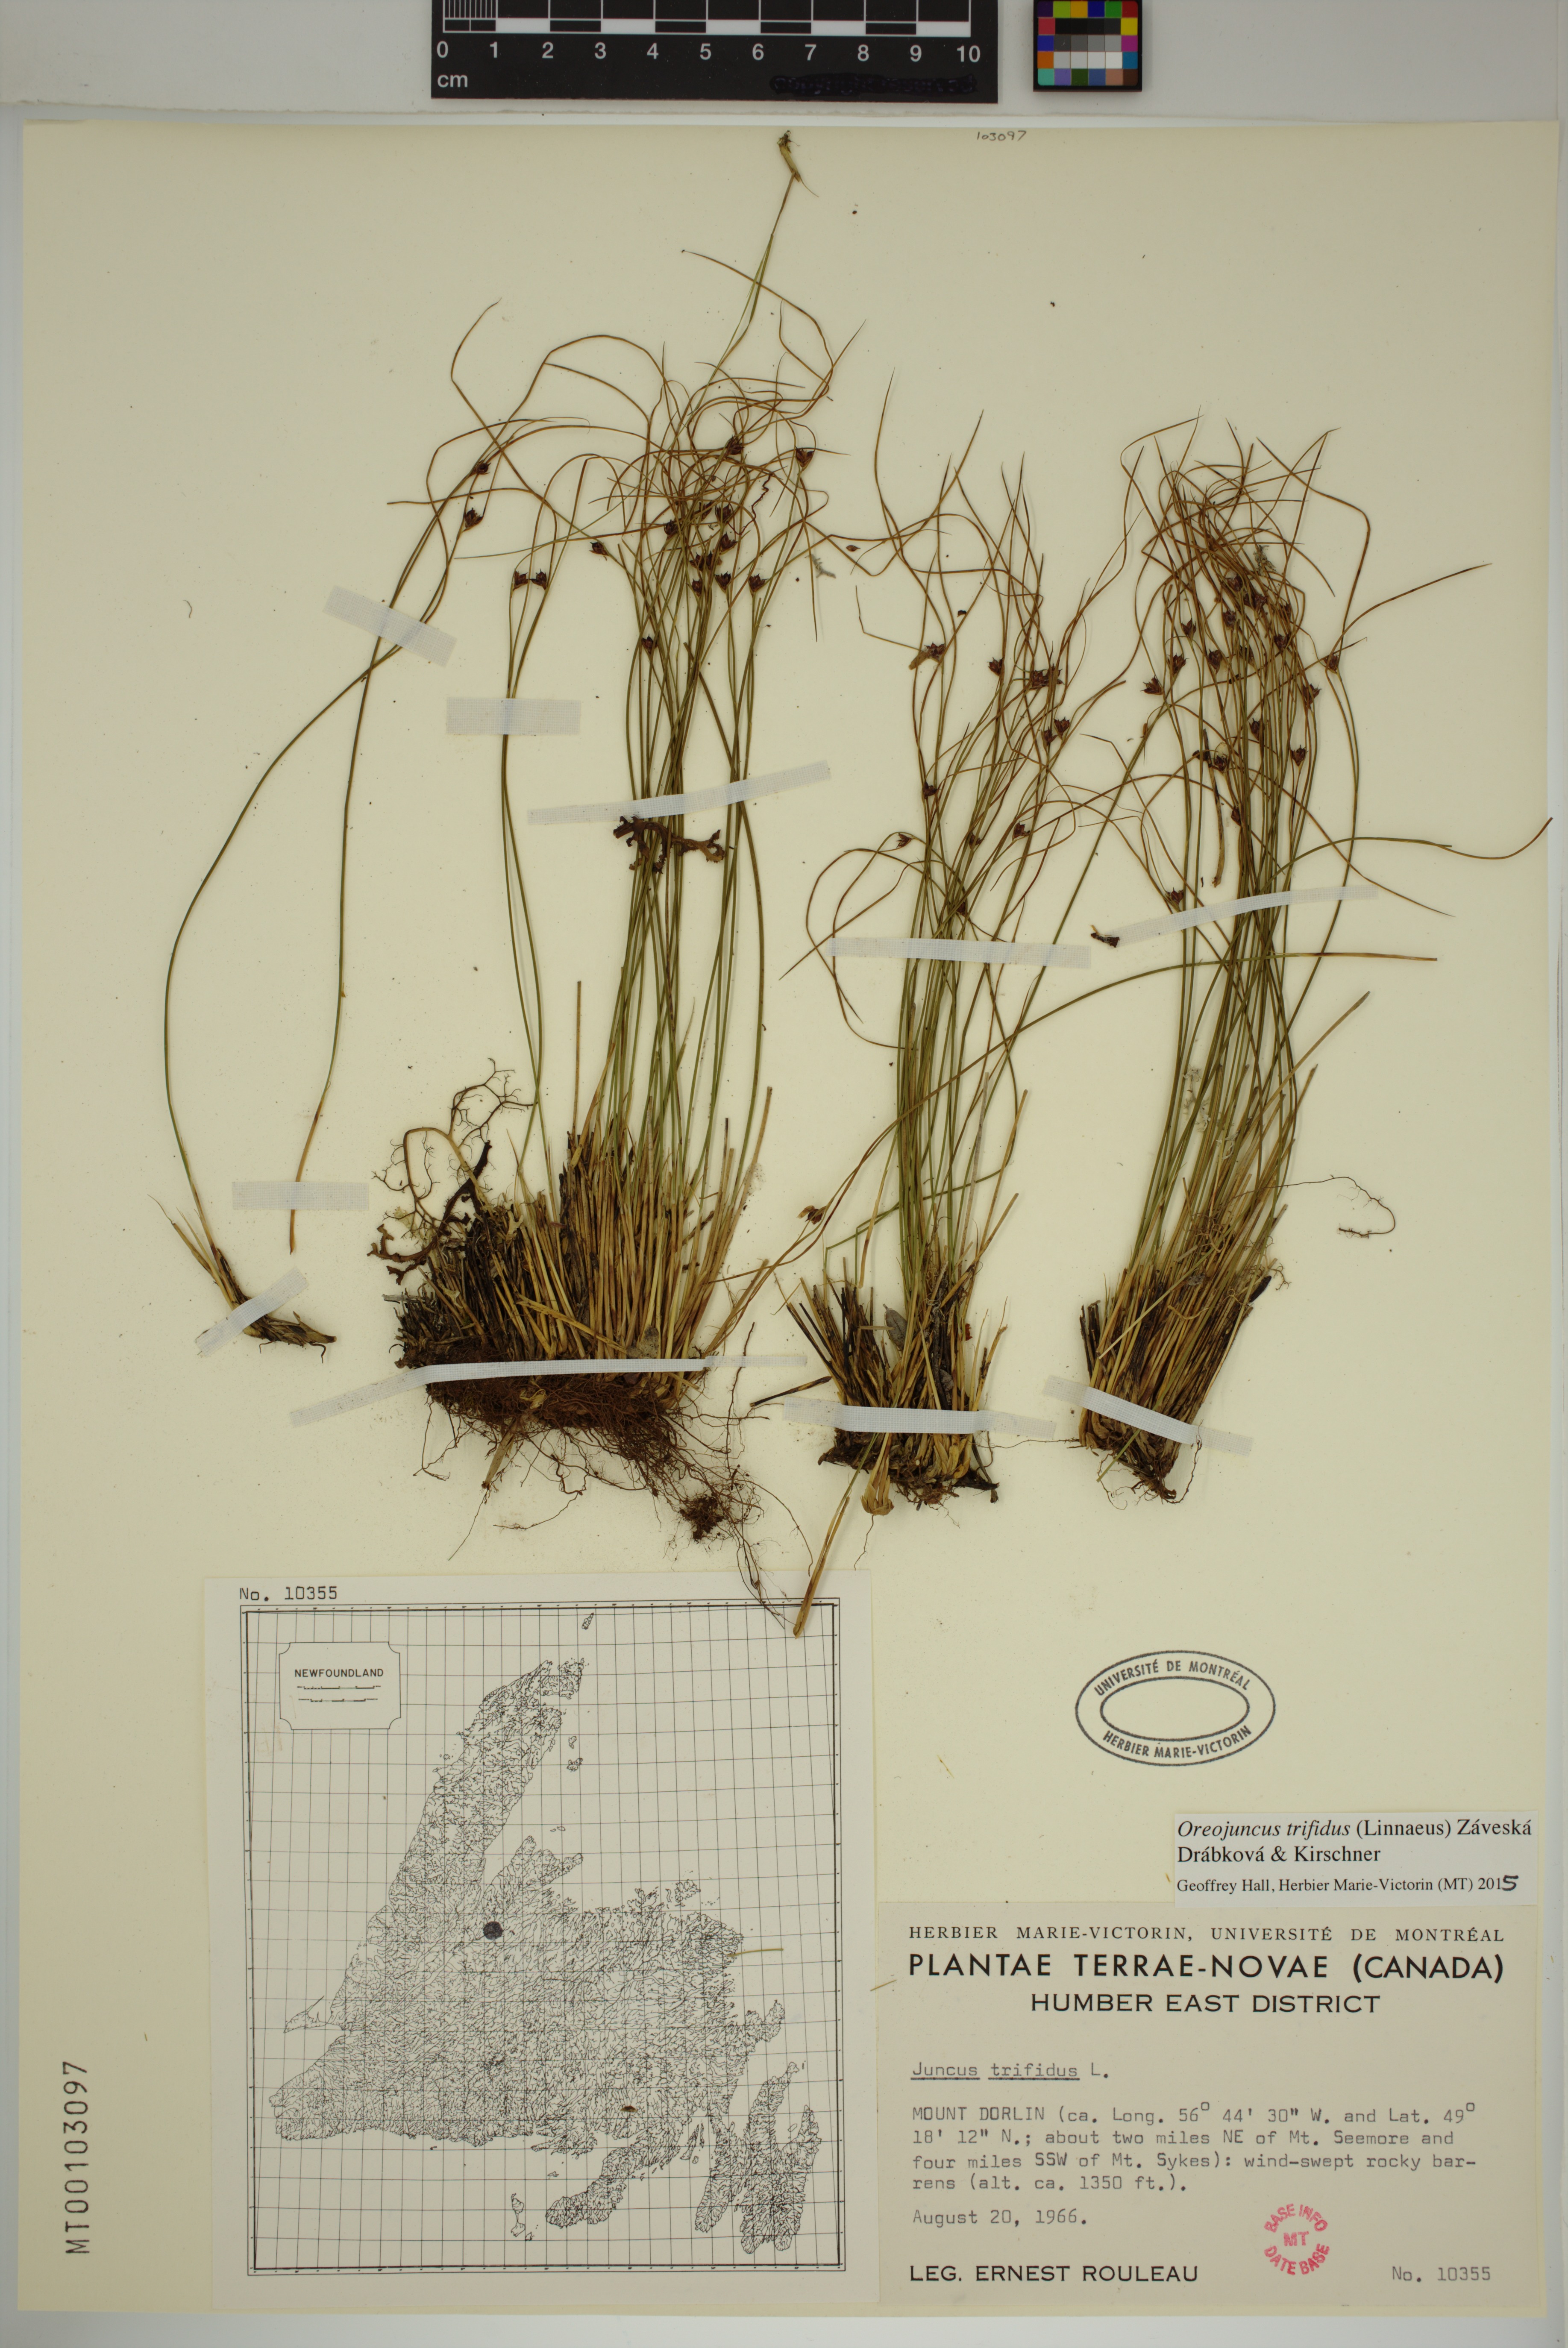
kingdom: Plantae
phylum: Tracheophyta
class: Liliopsida
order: Poales
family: Juncaceae
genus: Oreojuncus
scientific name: Oreojuncus trifidus
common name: Highland rush
